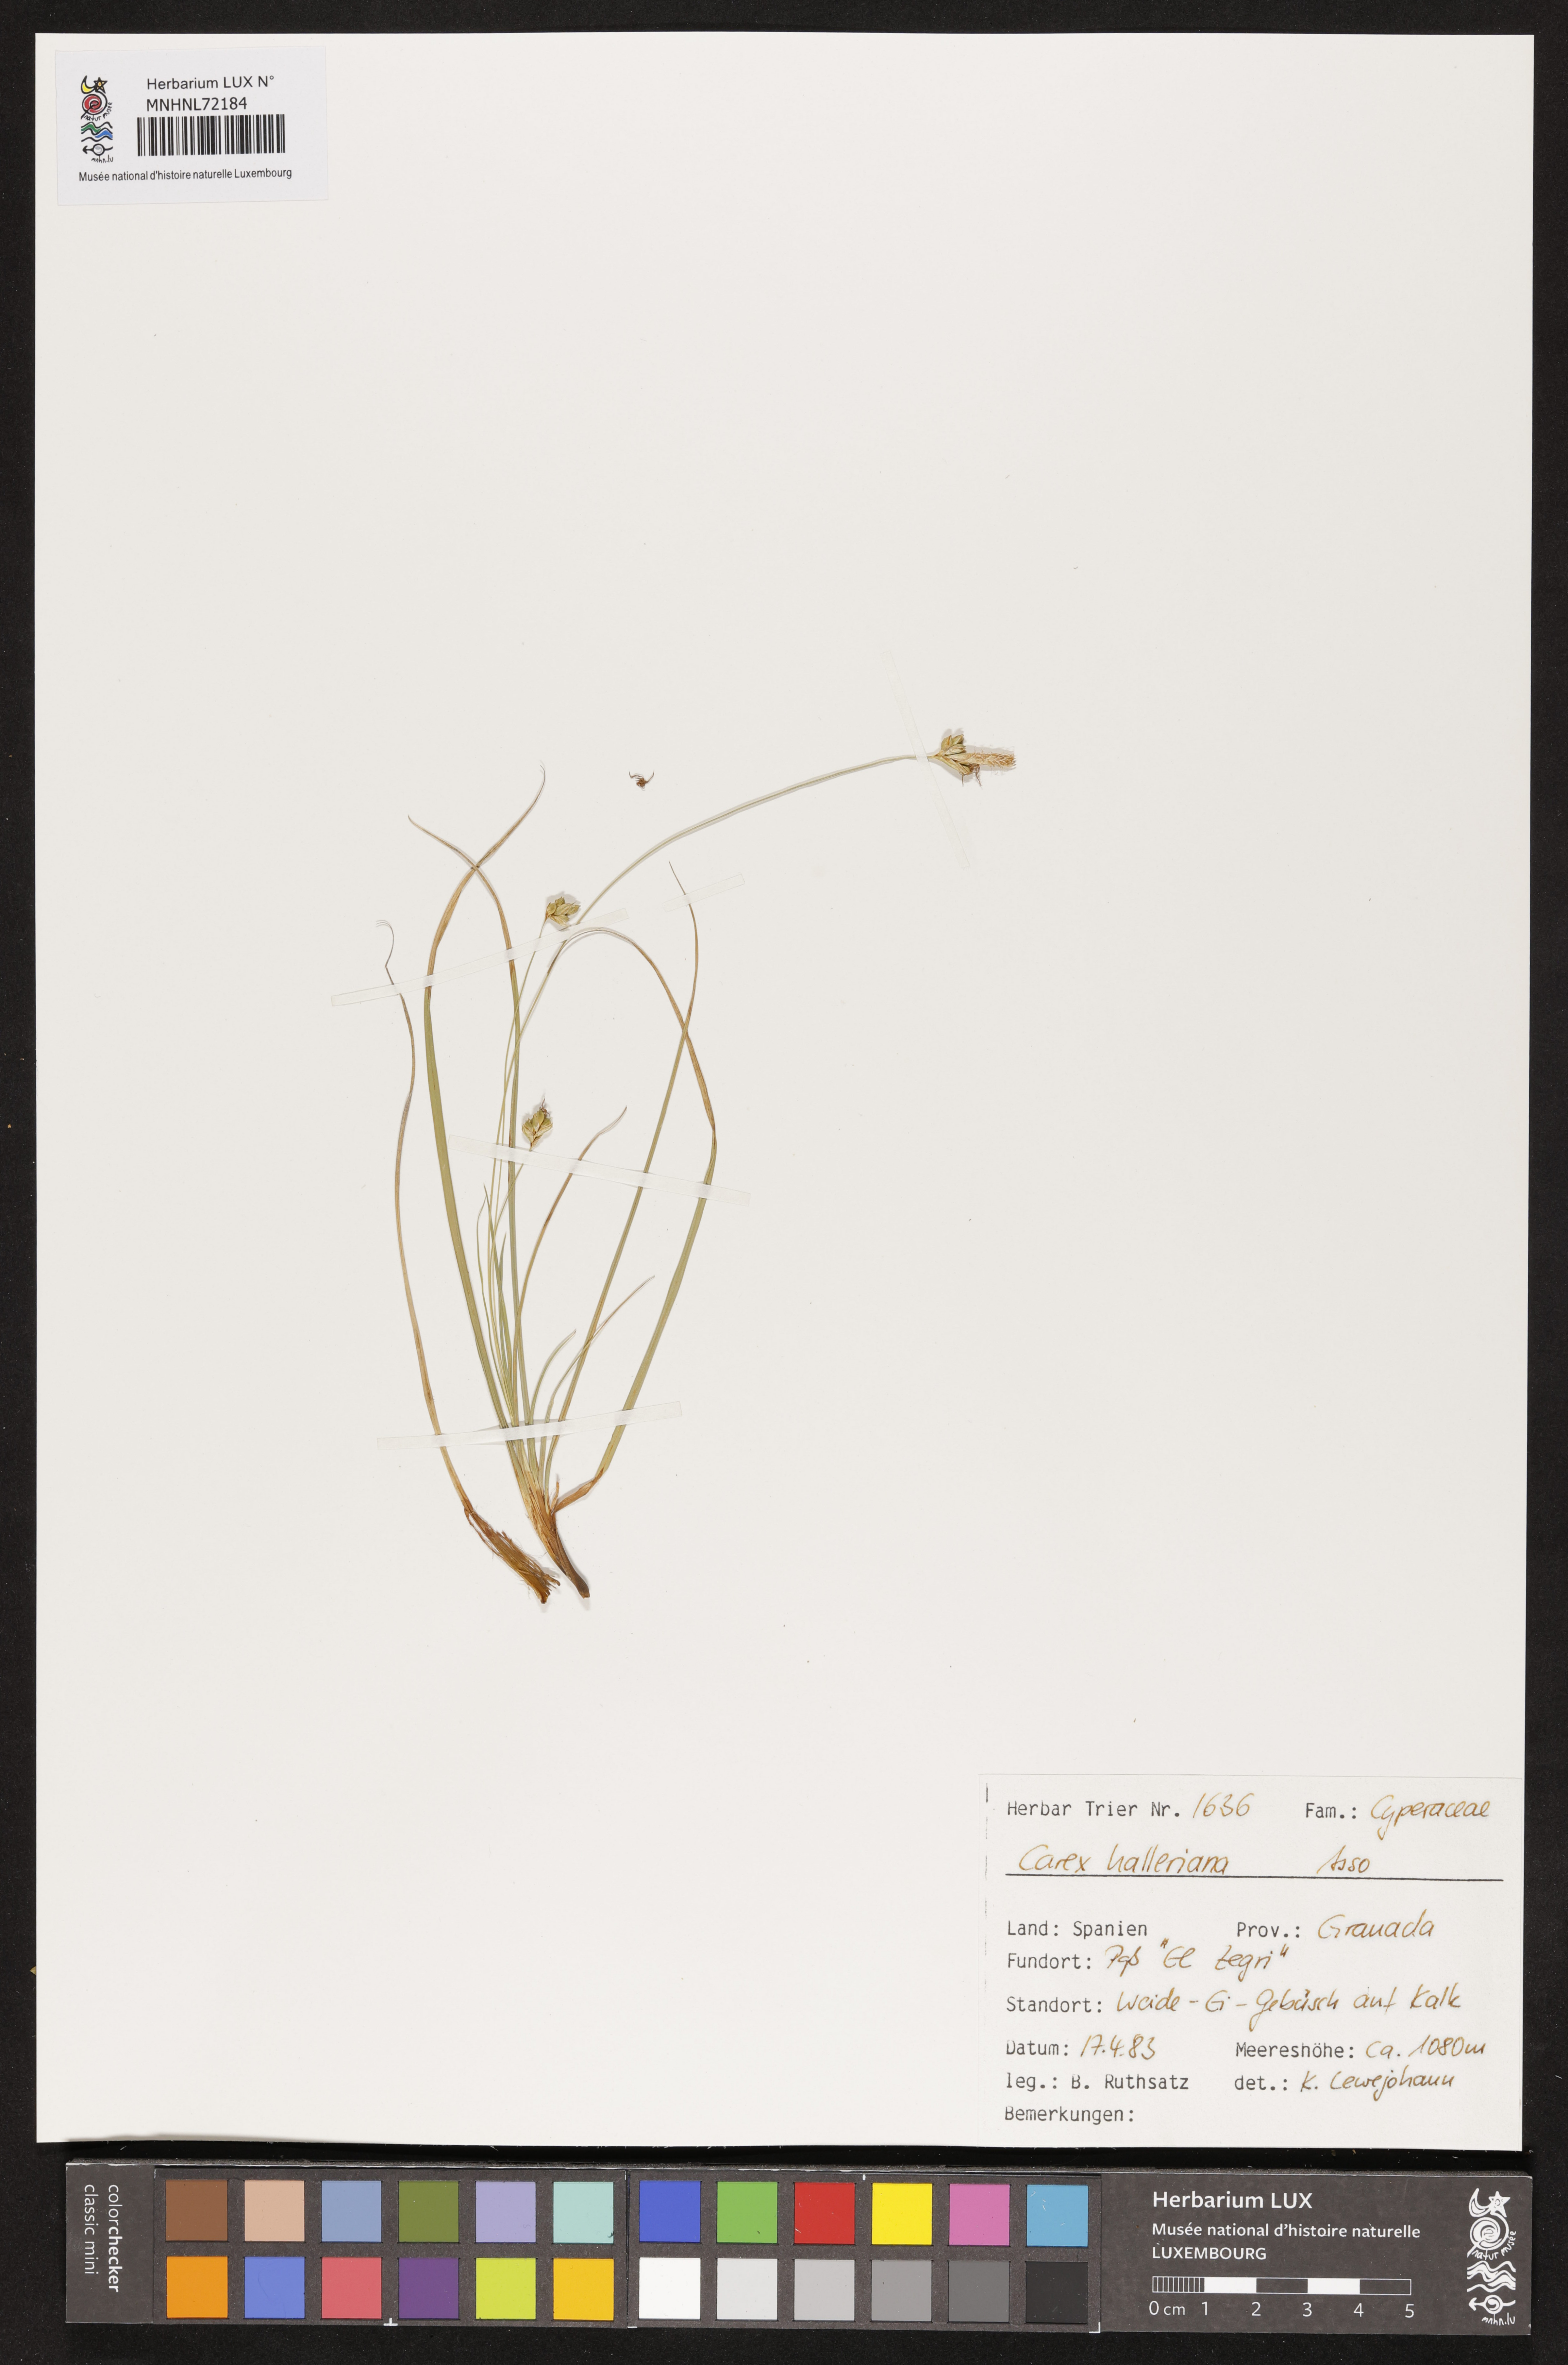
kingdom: Plantae
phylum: Tracheophyta
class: Liliopsida
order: Poales
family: Cyperaceae
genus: Carex
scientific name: Carex halleriana
